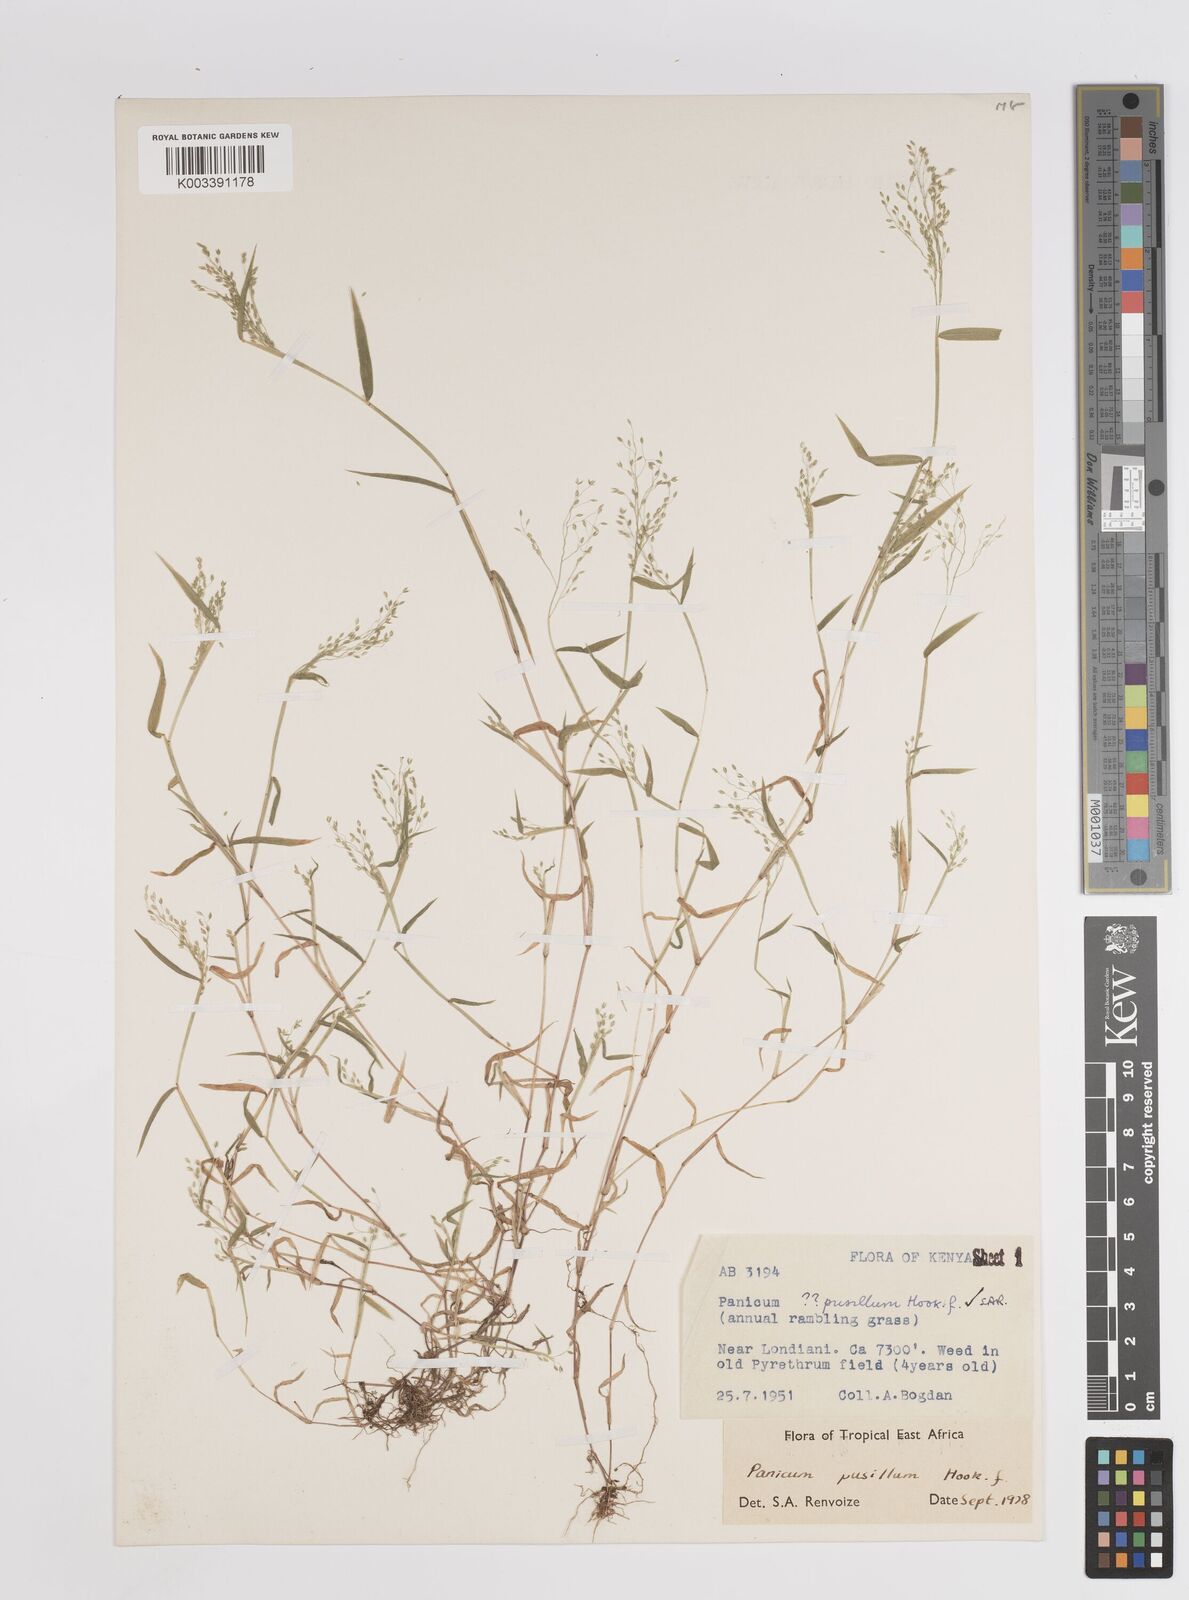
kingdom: Plantae
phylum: Tracheophyta
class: Liliopsida
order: Poales
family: Poaceae
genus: Panicum
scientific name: Panicum pusillum
